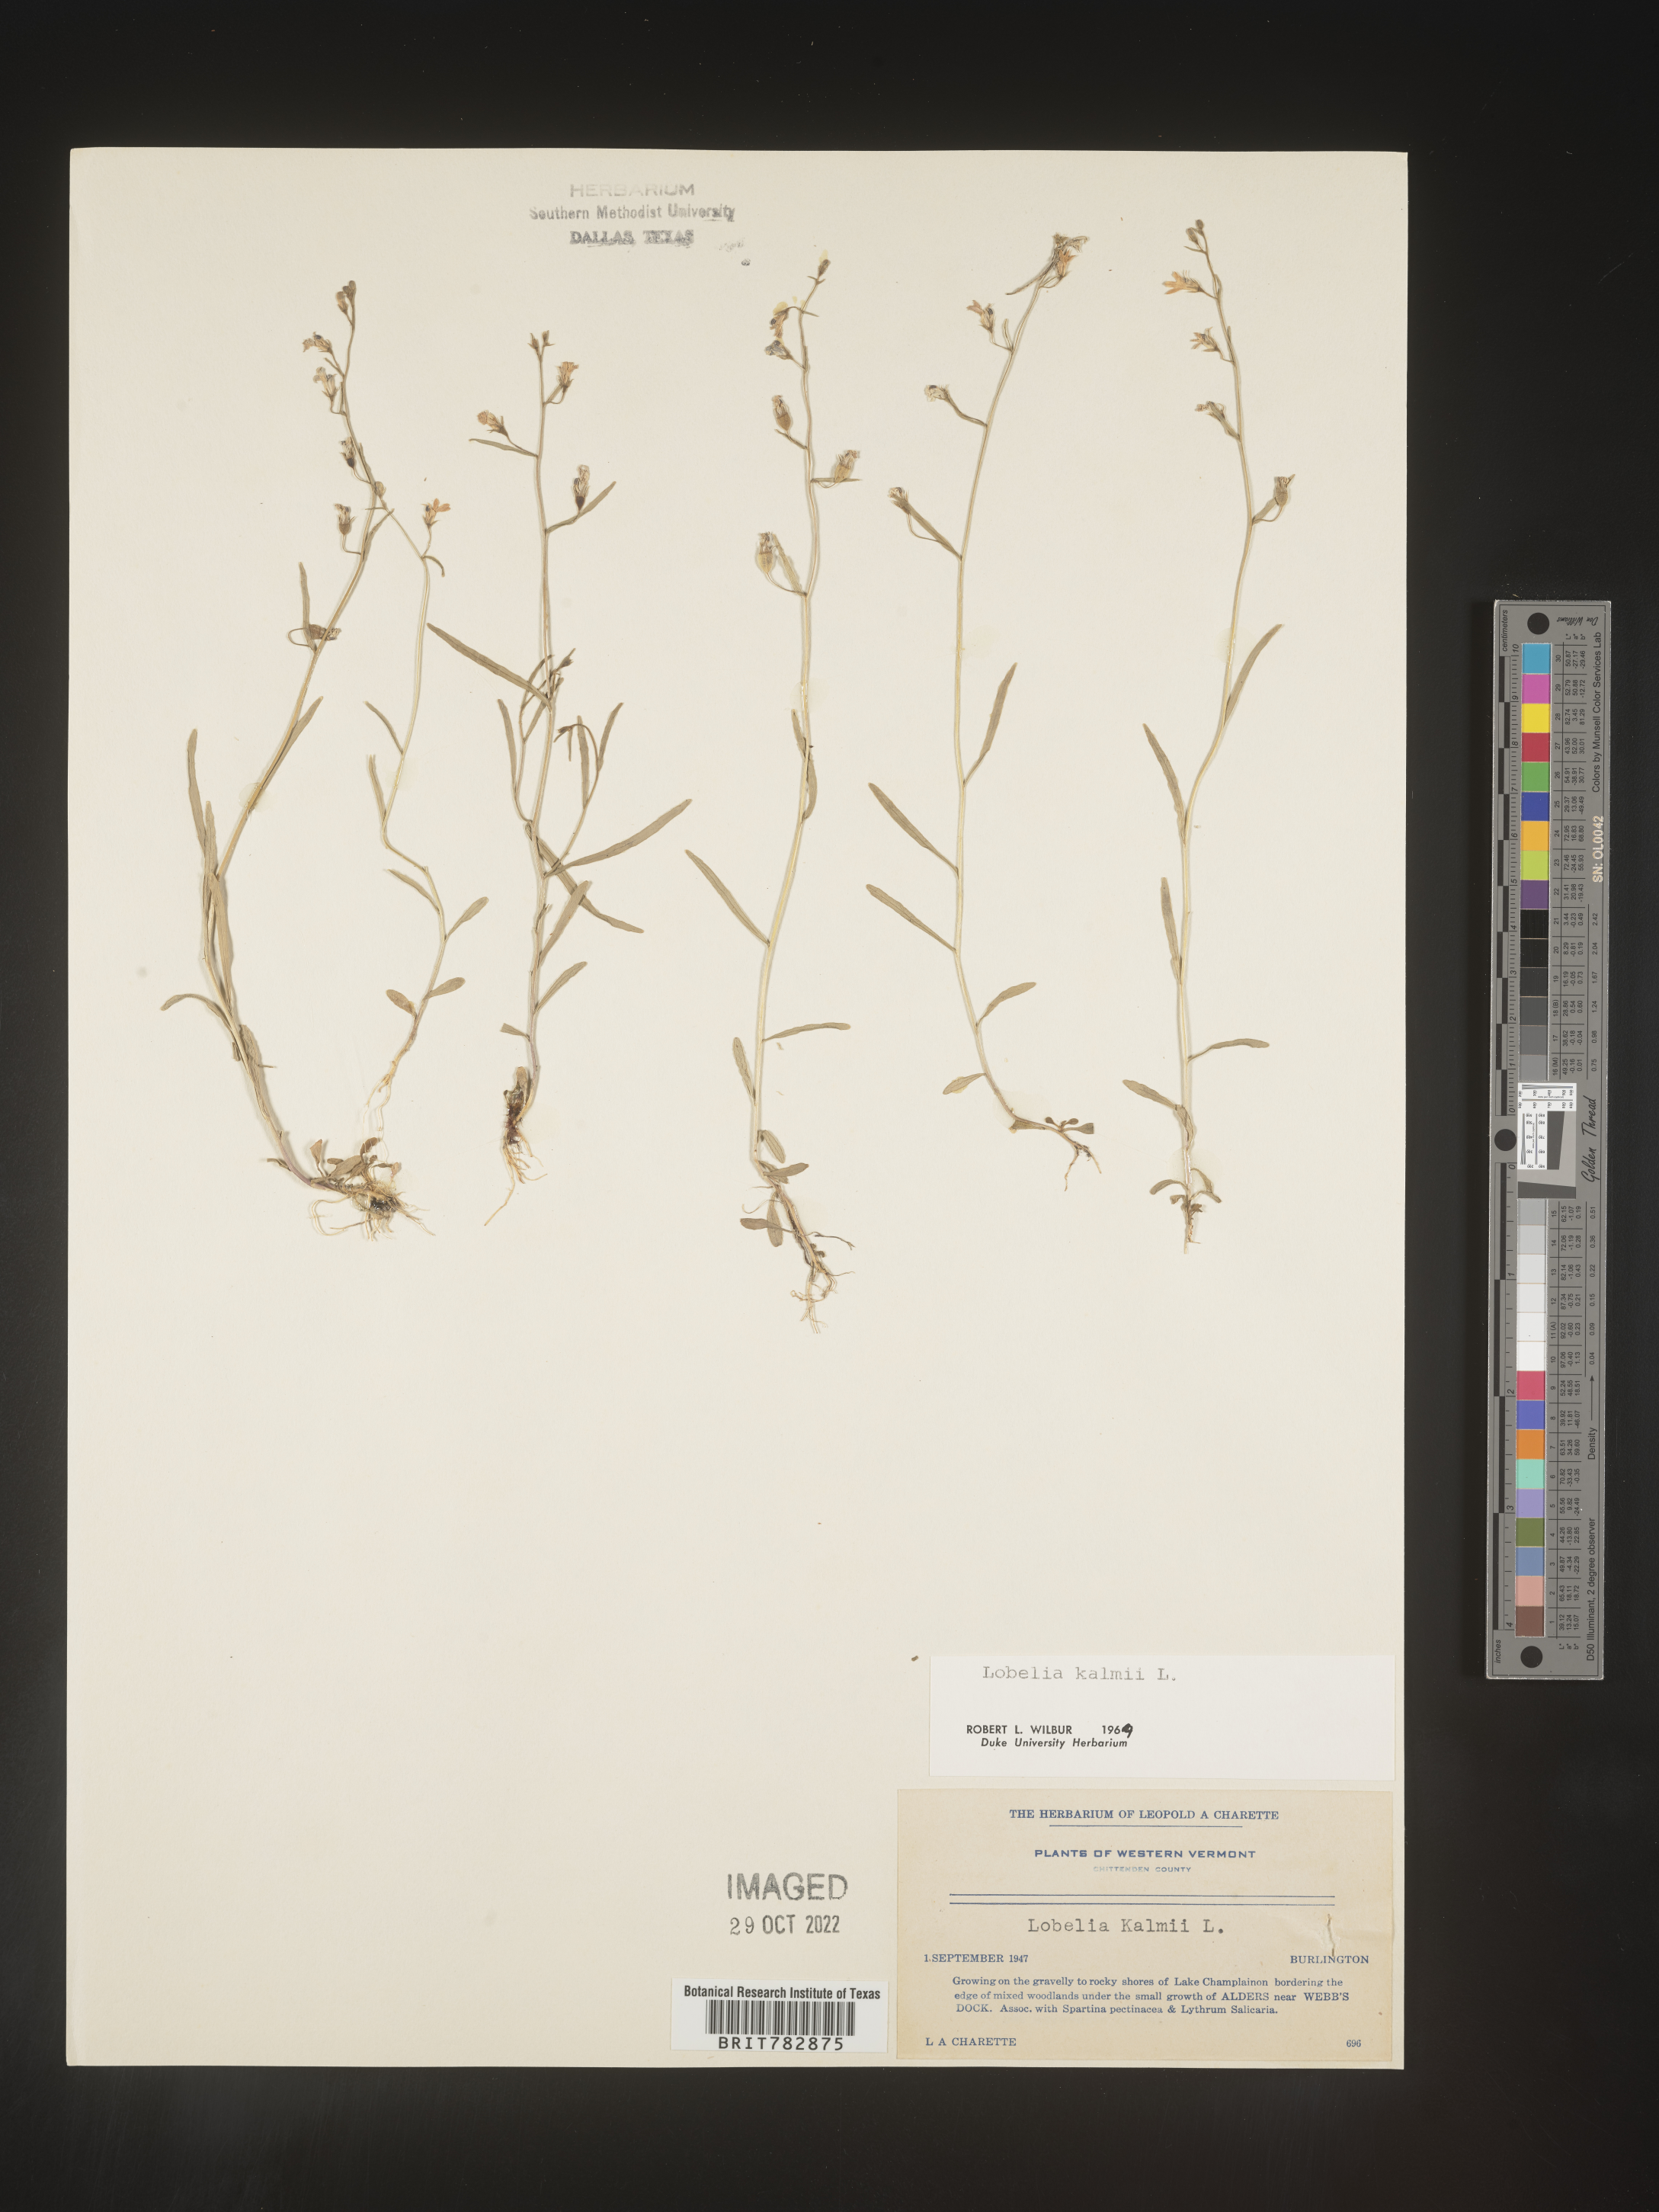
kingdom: Plantae
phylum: Tracheophyta
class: Magnoliopsida
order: Asterales
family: Campanulaceae
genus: Lobelia
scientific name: Lobelia
